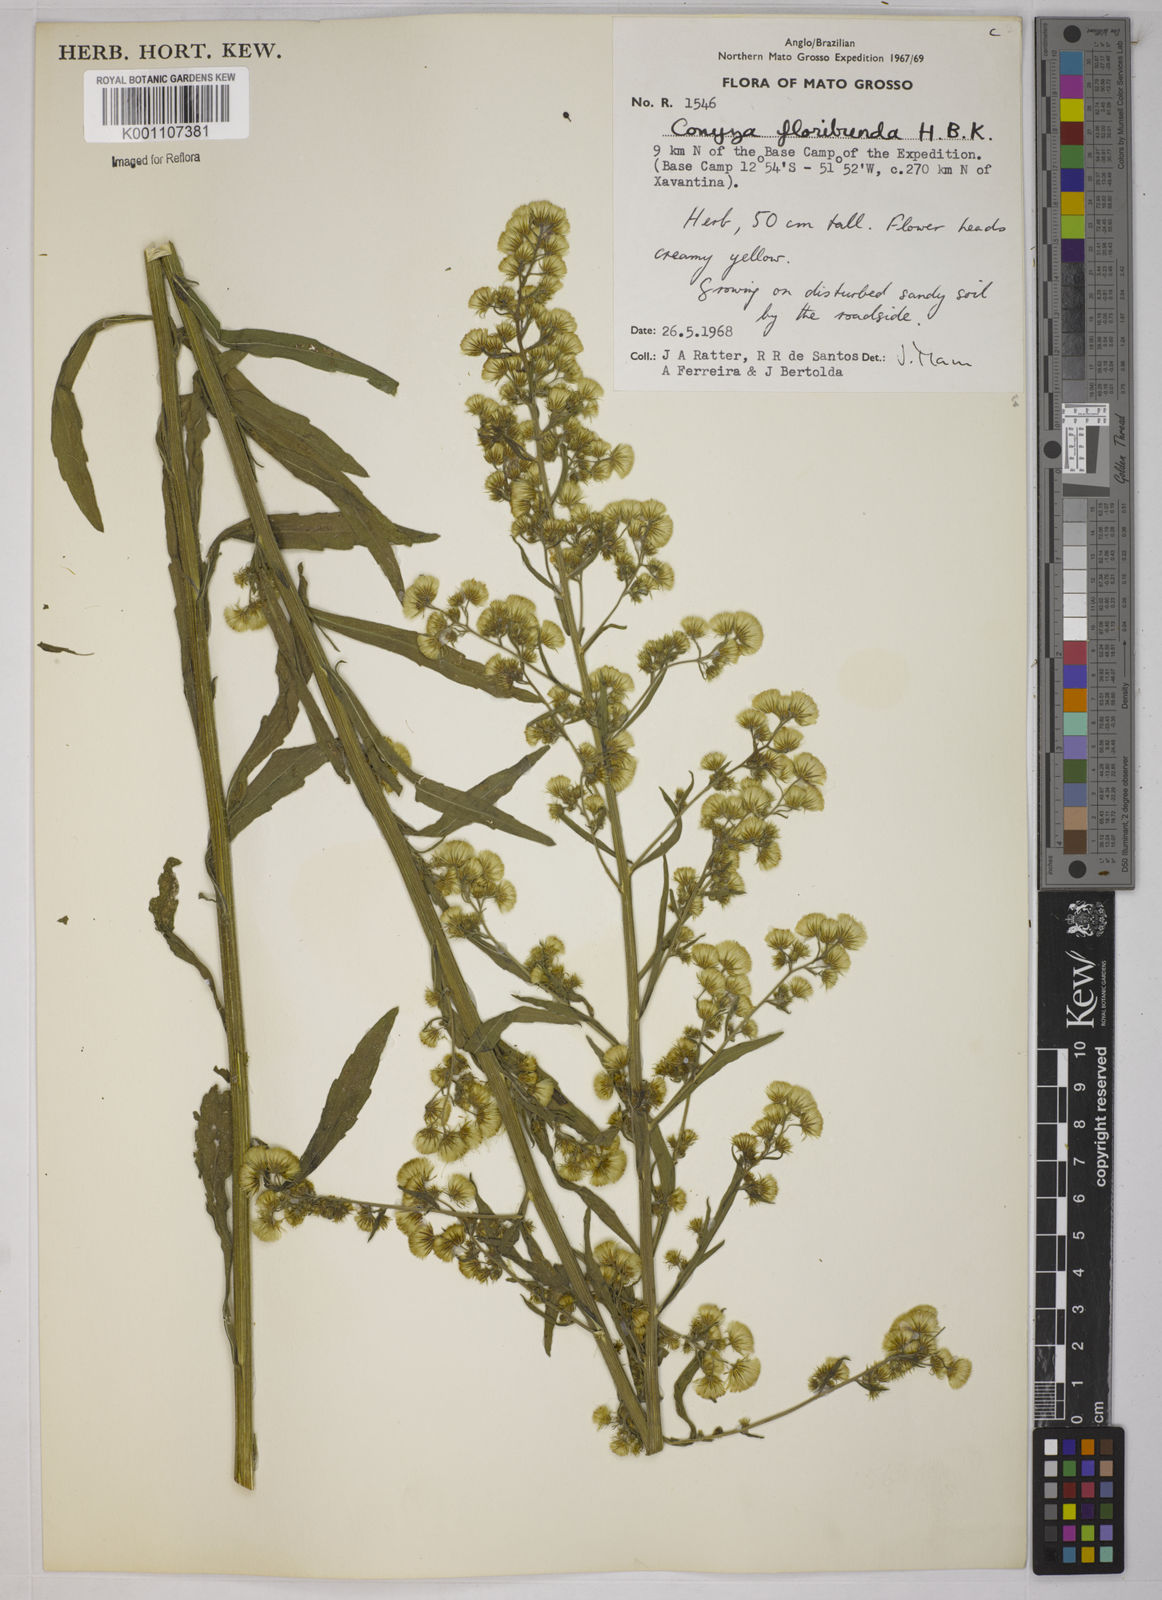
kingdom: Plantae
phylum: Tracheophyta
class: Magnoliopsida
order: Asterales
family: Asteraceae
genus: Erigeron
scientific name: Erigeron sumatrensis
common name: Daisy
